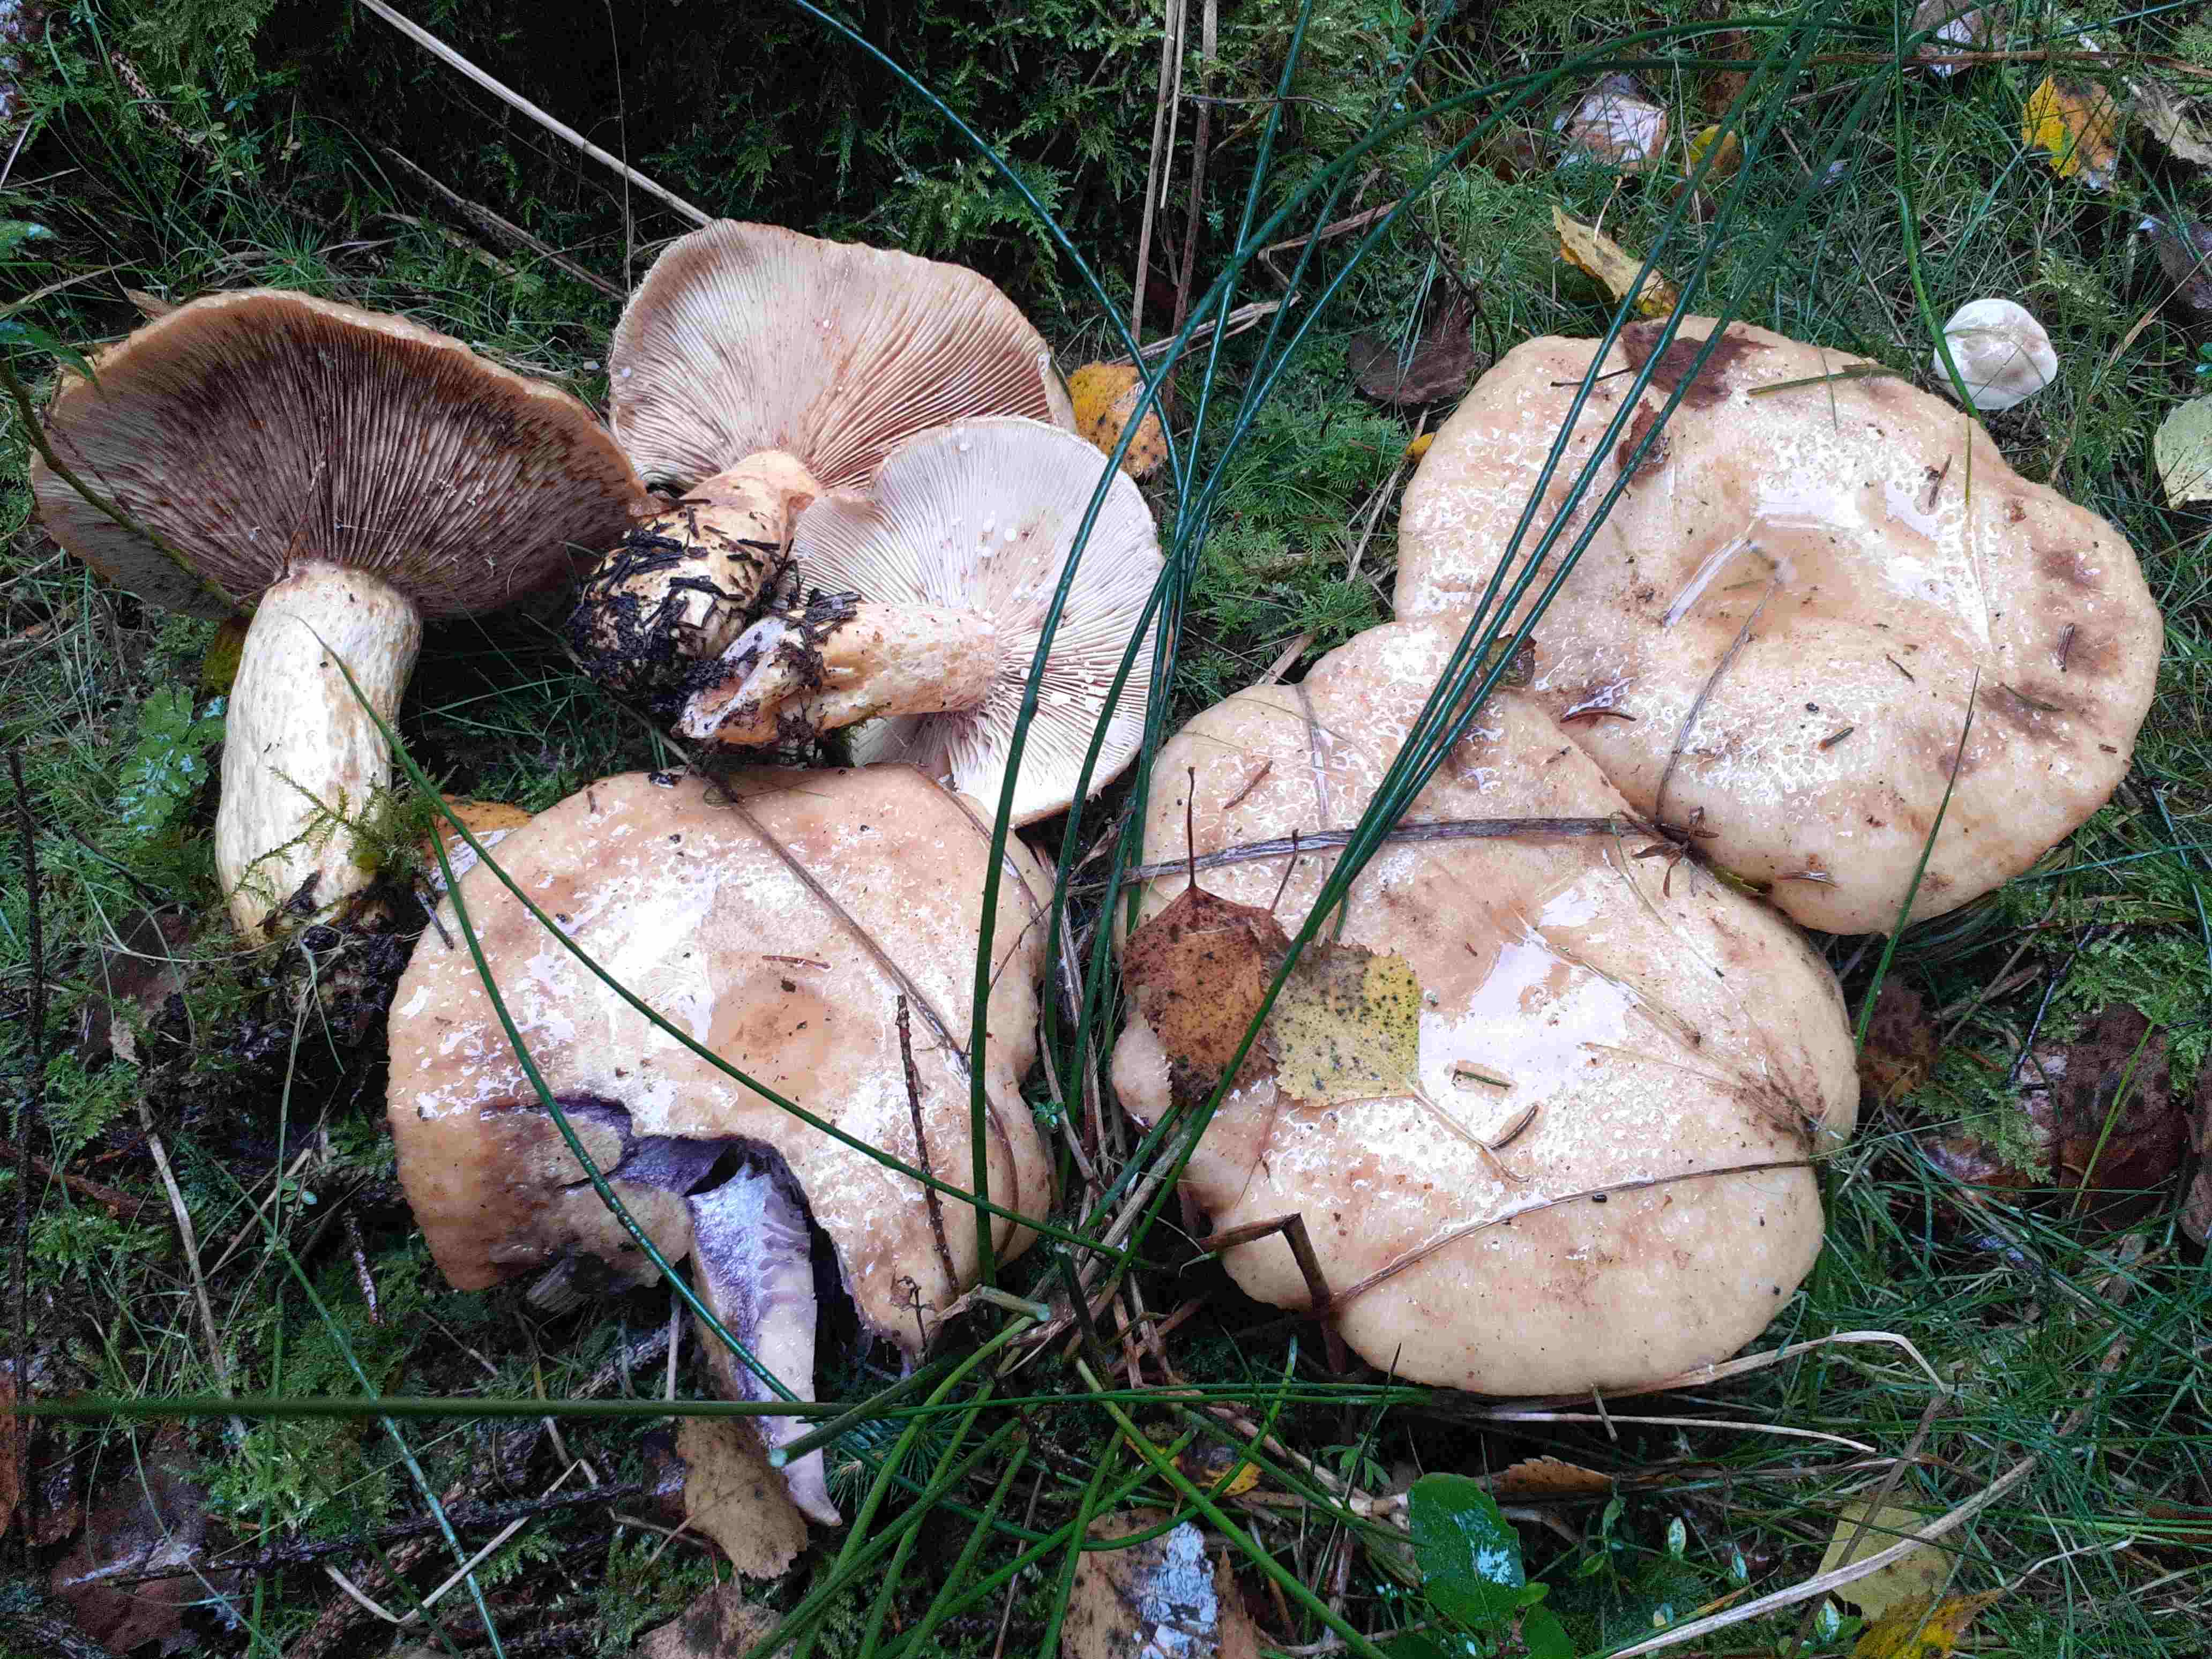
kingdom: Fungi
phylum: Basidiomycota
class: Agaricomycetes
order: Russulales
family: Russulaceae
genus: Lactarius
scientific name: Lactarius repraesentaneus
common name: prægtig mælkehat
